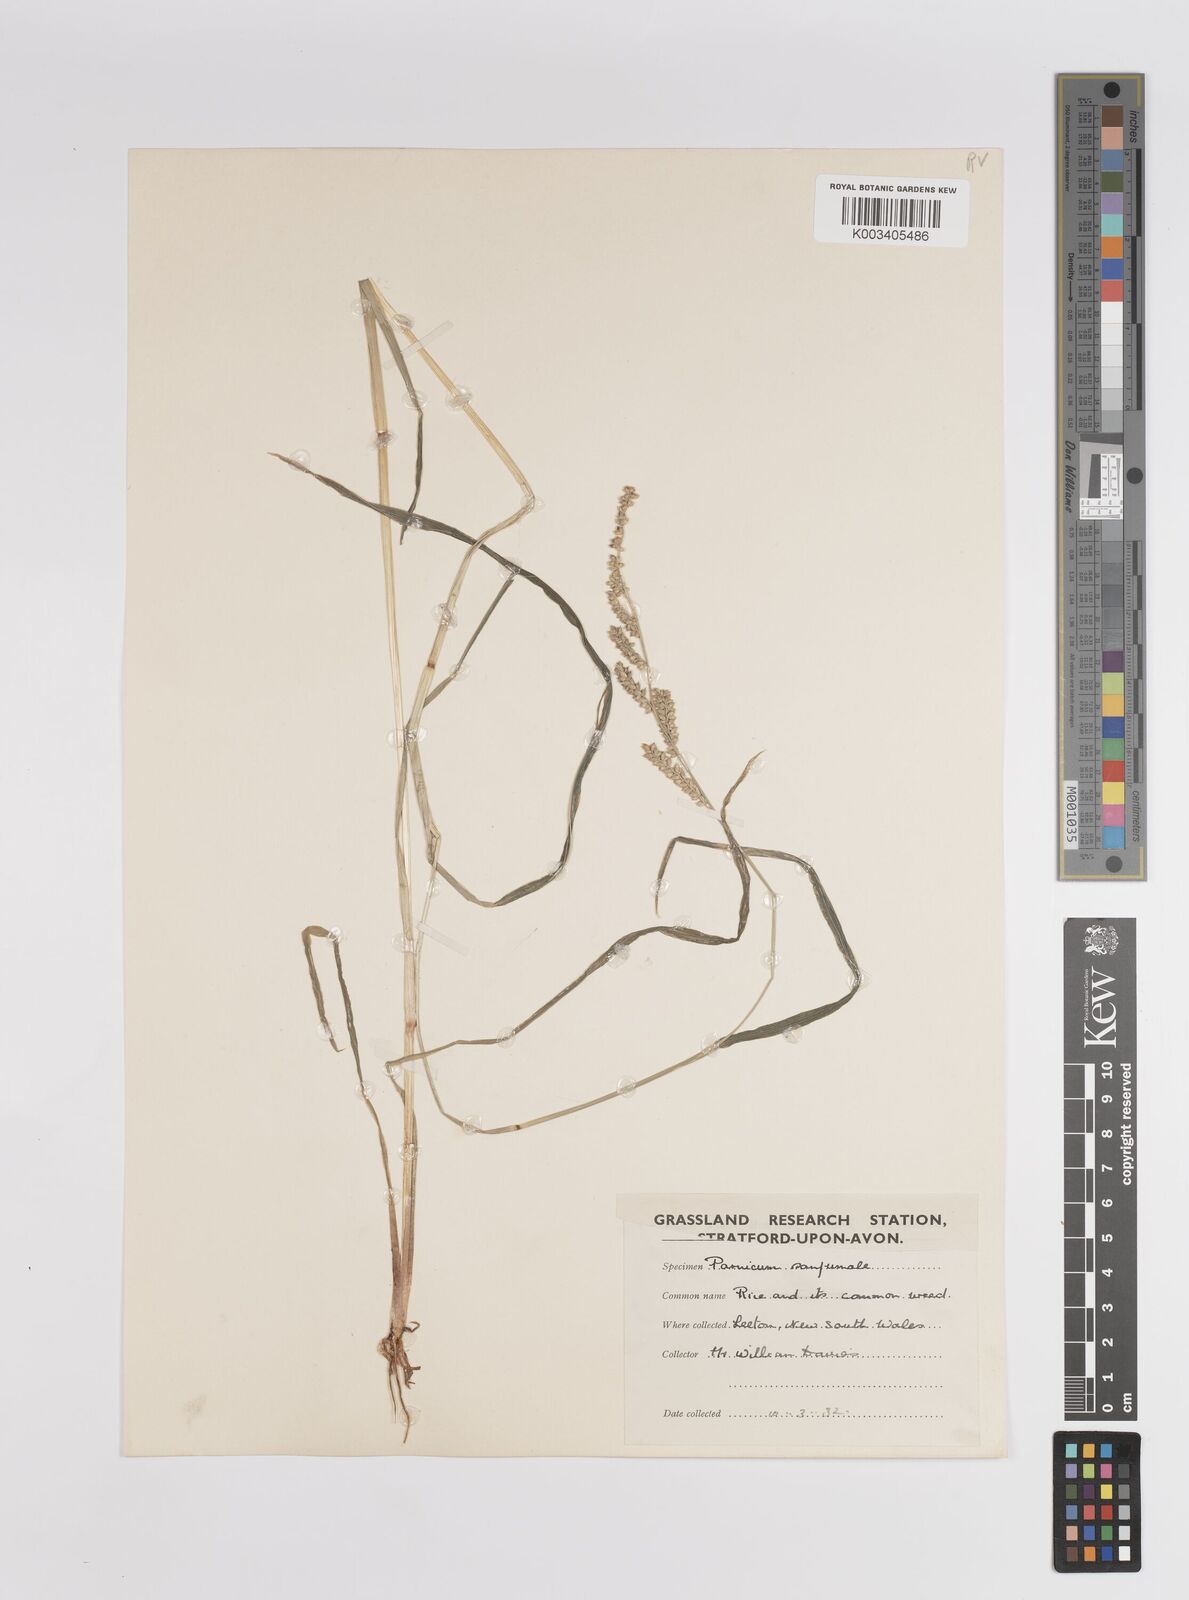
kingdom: Plantae
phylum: Tracheophyta
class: Liliopsida
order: Poales
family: Poaceae
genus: Panicum
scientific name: Panicum
